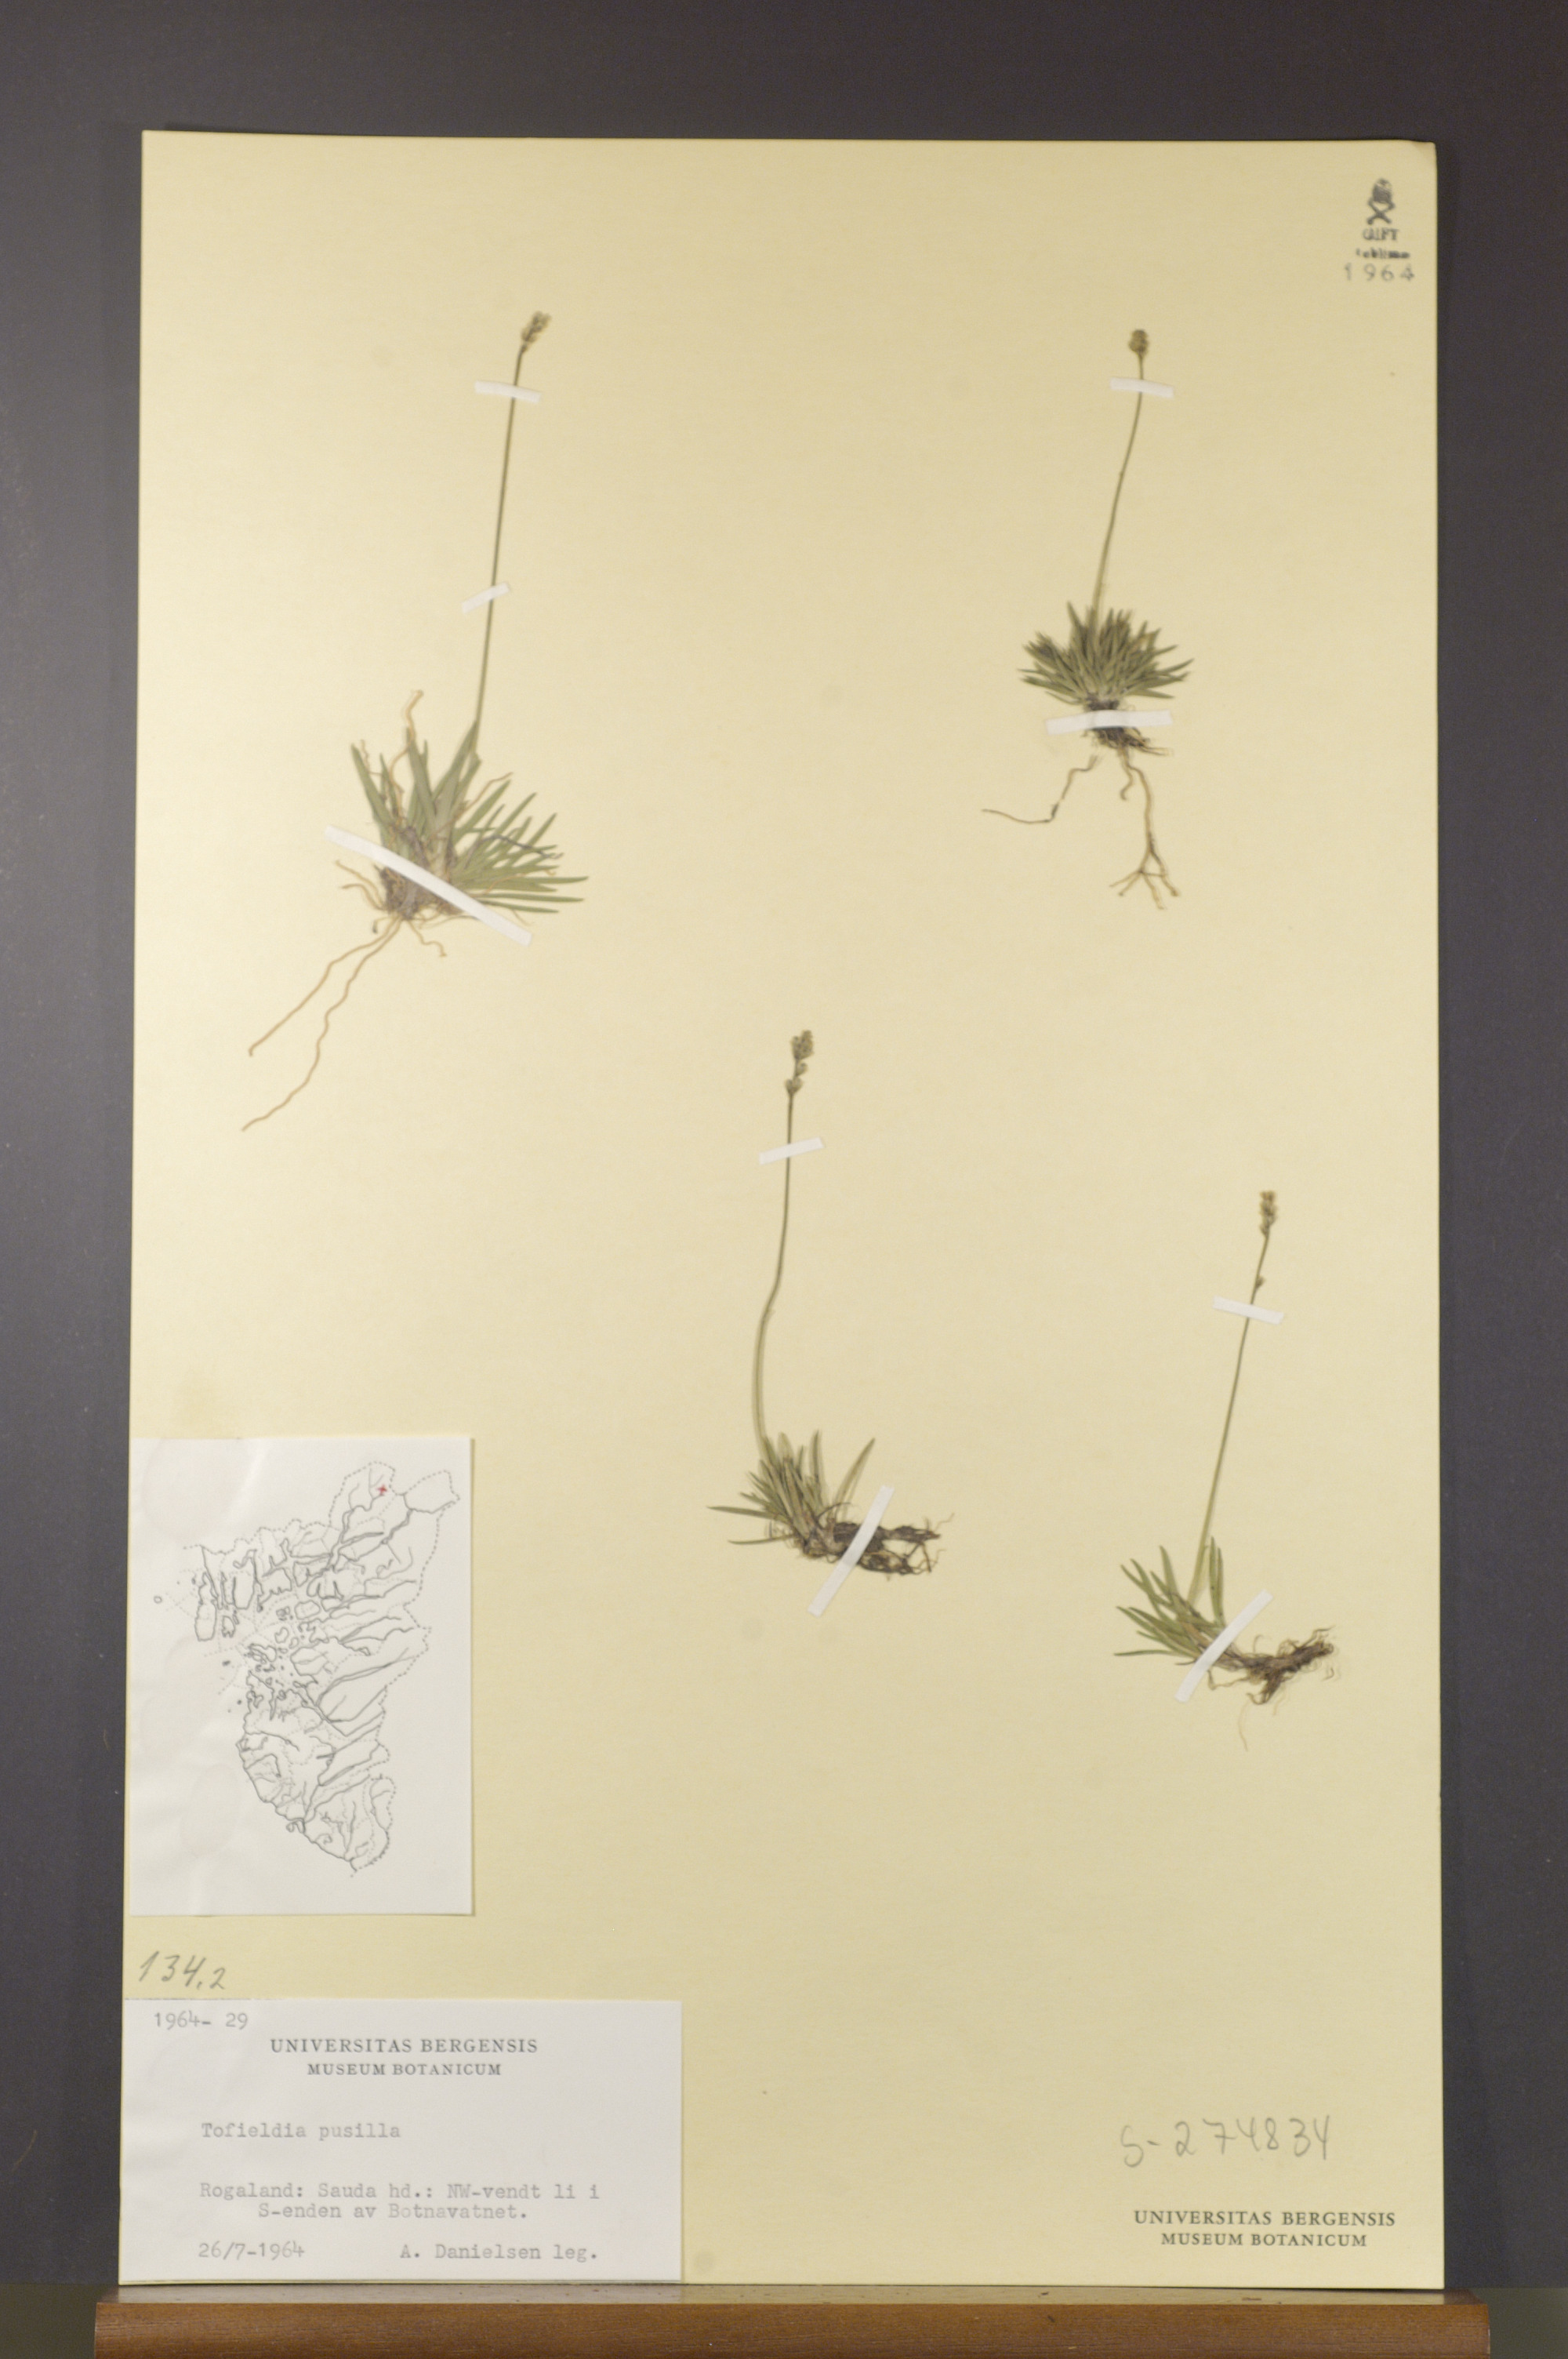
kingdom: Plantae
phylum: Tracheophyta
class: Liliopsida
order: Alismatales
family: Tofieldiaceae
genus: Tofieldia
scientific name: Tofieldia pusilla
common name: Scottish false asphodel
